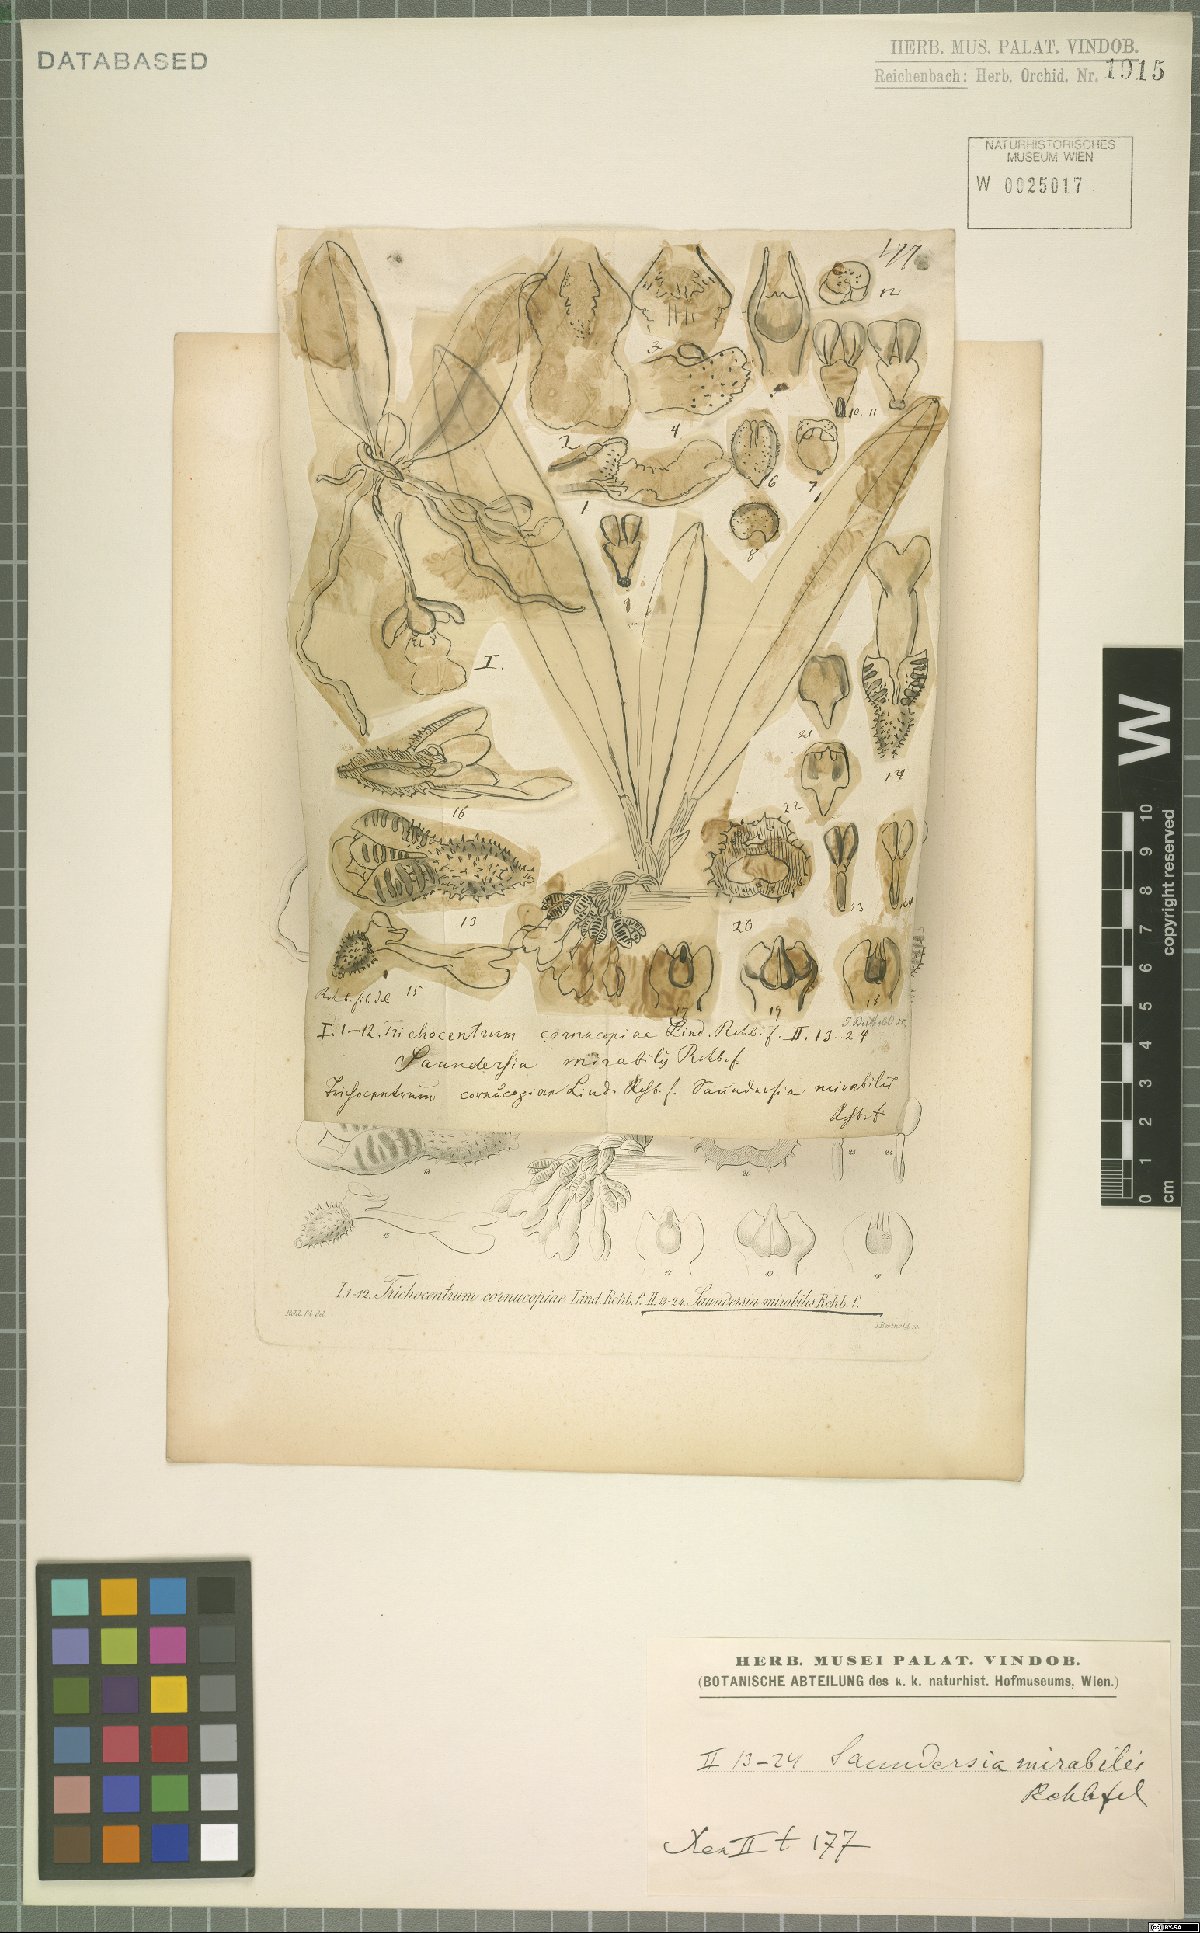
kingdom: Plantae
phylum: Tracheophyta
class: Liliopsida
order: Asparagales
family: Orchidaceae
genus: Saundersia
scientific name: Saundersia mirabilis
